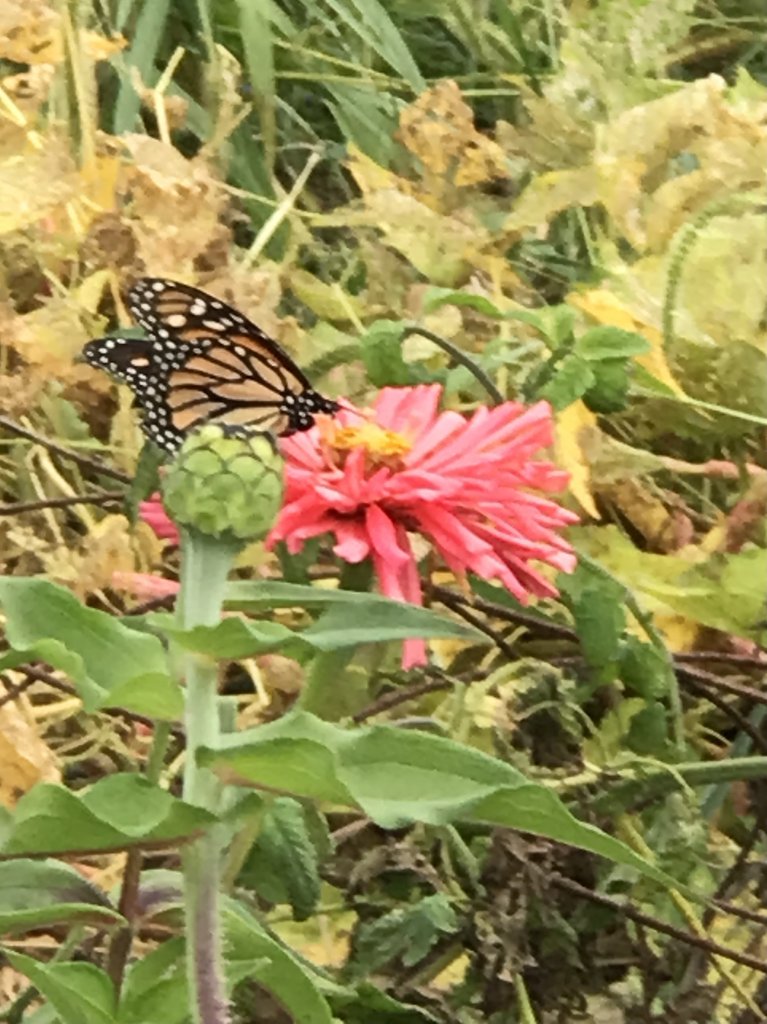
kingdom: Animalia
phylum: Arthropoda
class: Insecta
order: Lepidoptera
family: Nymphalidae
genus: Danaus
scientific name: Danaus plexippus
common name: Monarch
